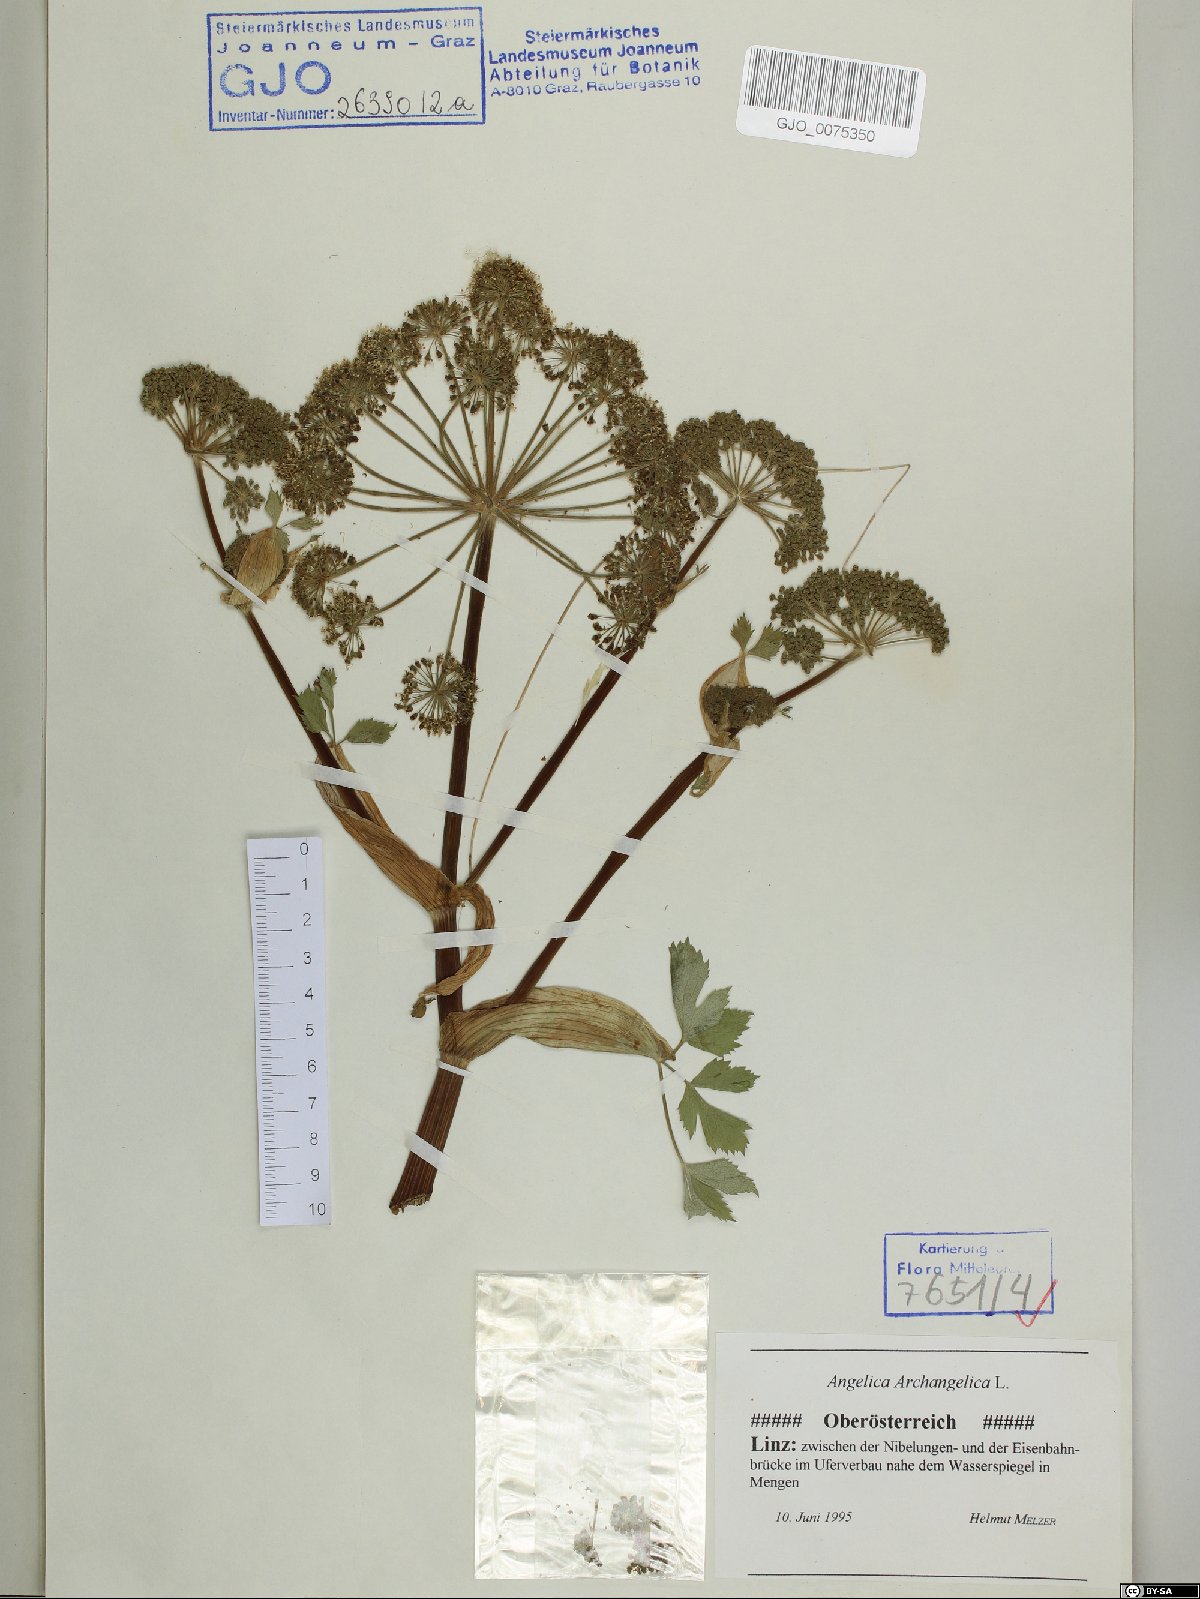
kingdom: Plantae
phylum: Tracheophyta
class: Magnoliopsida
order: Apiales
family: Apiaceae
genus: Angelica
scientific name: Angelica archangelica
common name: Garden angelica
